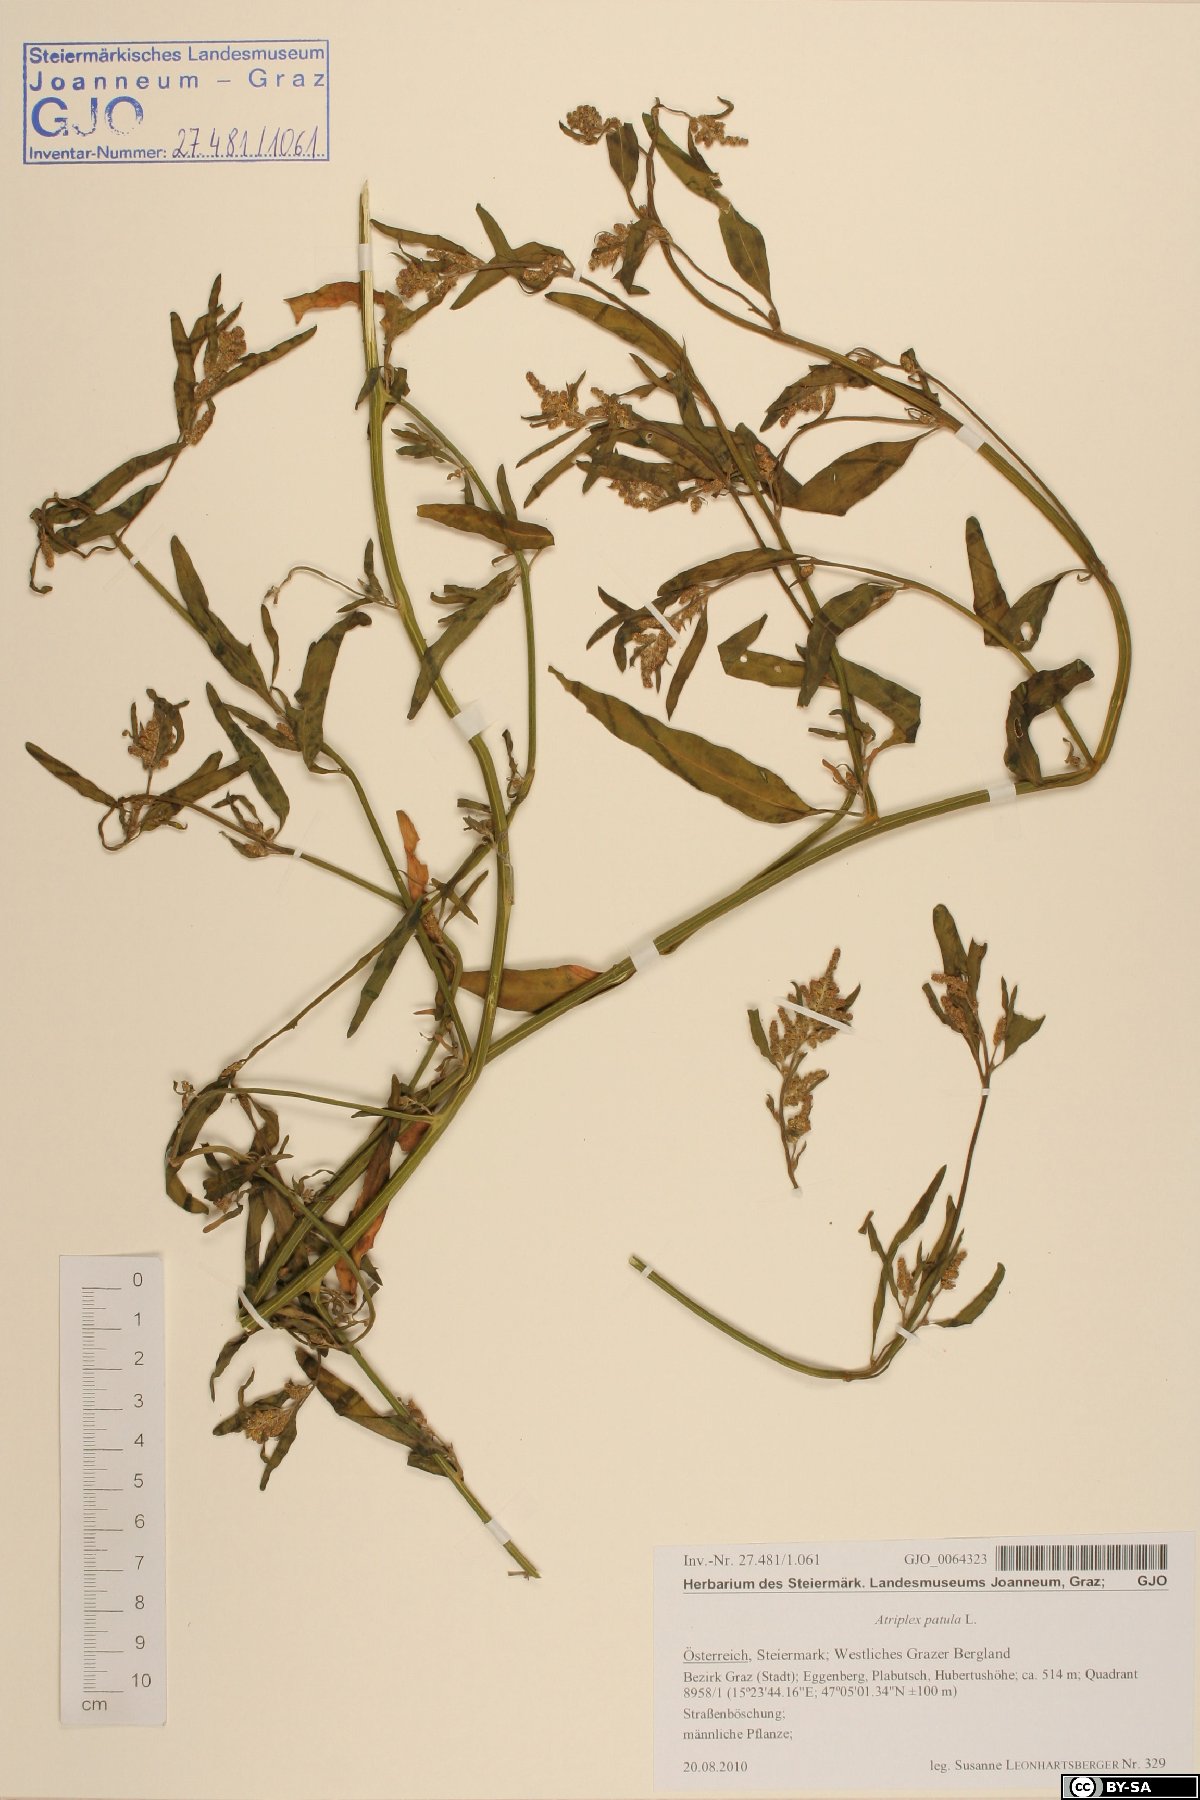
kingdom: Plantae
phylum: Tracheophyta
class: Magnoliopsida
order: Caryophyllales
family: Amaranthaceae
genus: Atriplex
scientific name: Atriplex patula
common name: Common orache
